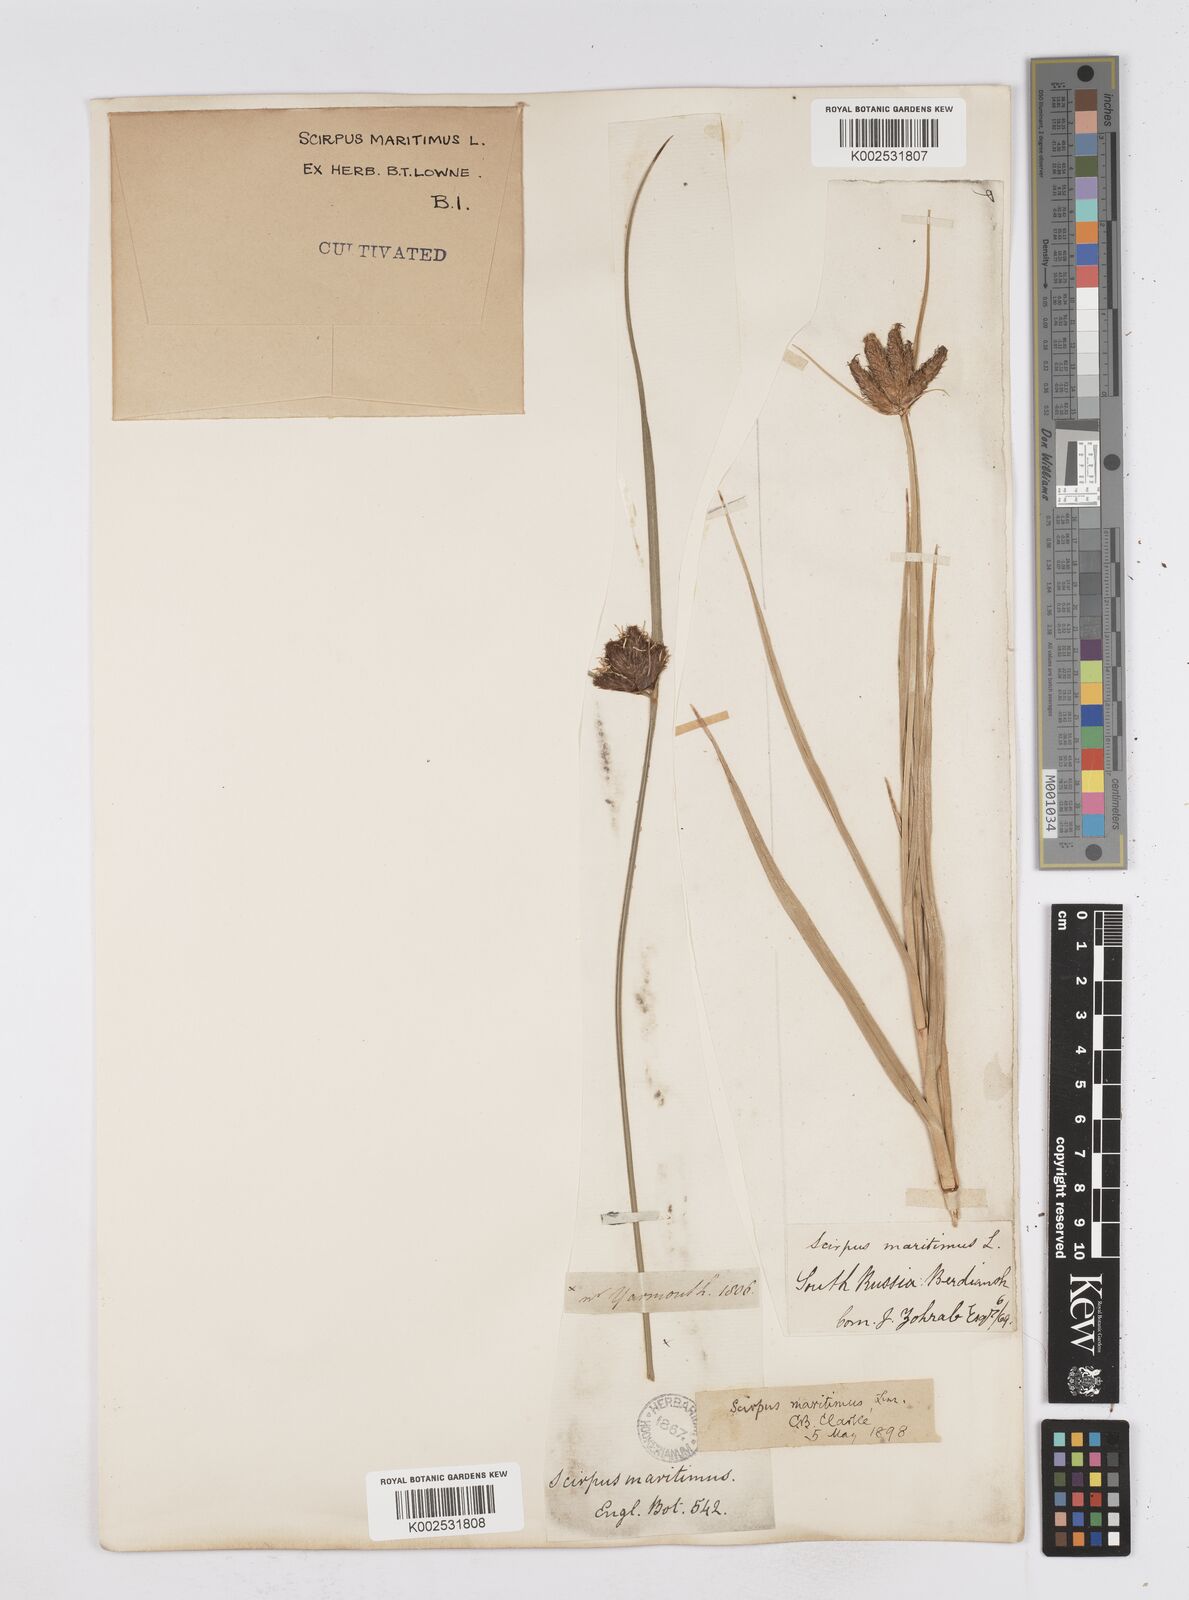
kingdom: Plantae
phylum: Tracheophyta
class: Liliopsida
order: Poales
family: Cyperaceae
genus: Bolboschoenus
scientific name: Bolboschoenus maritimus
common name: Sea club-rush
